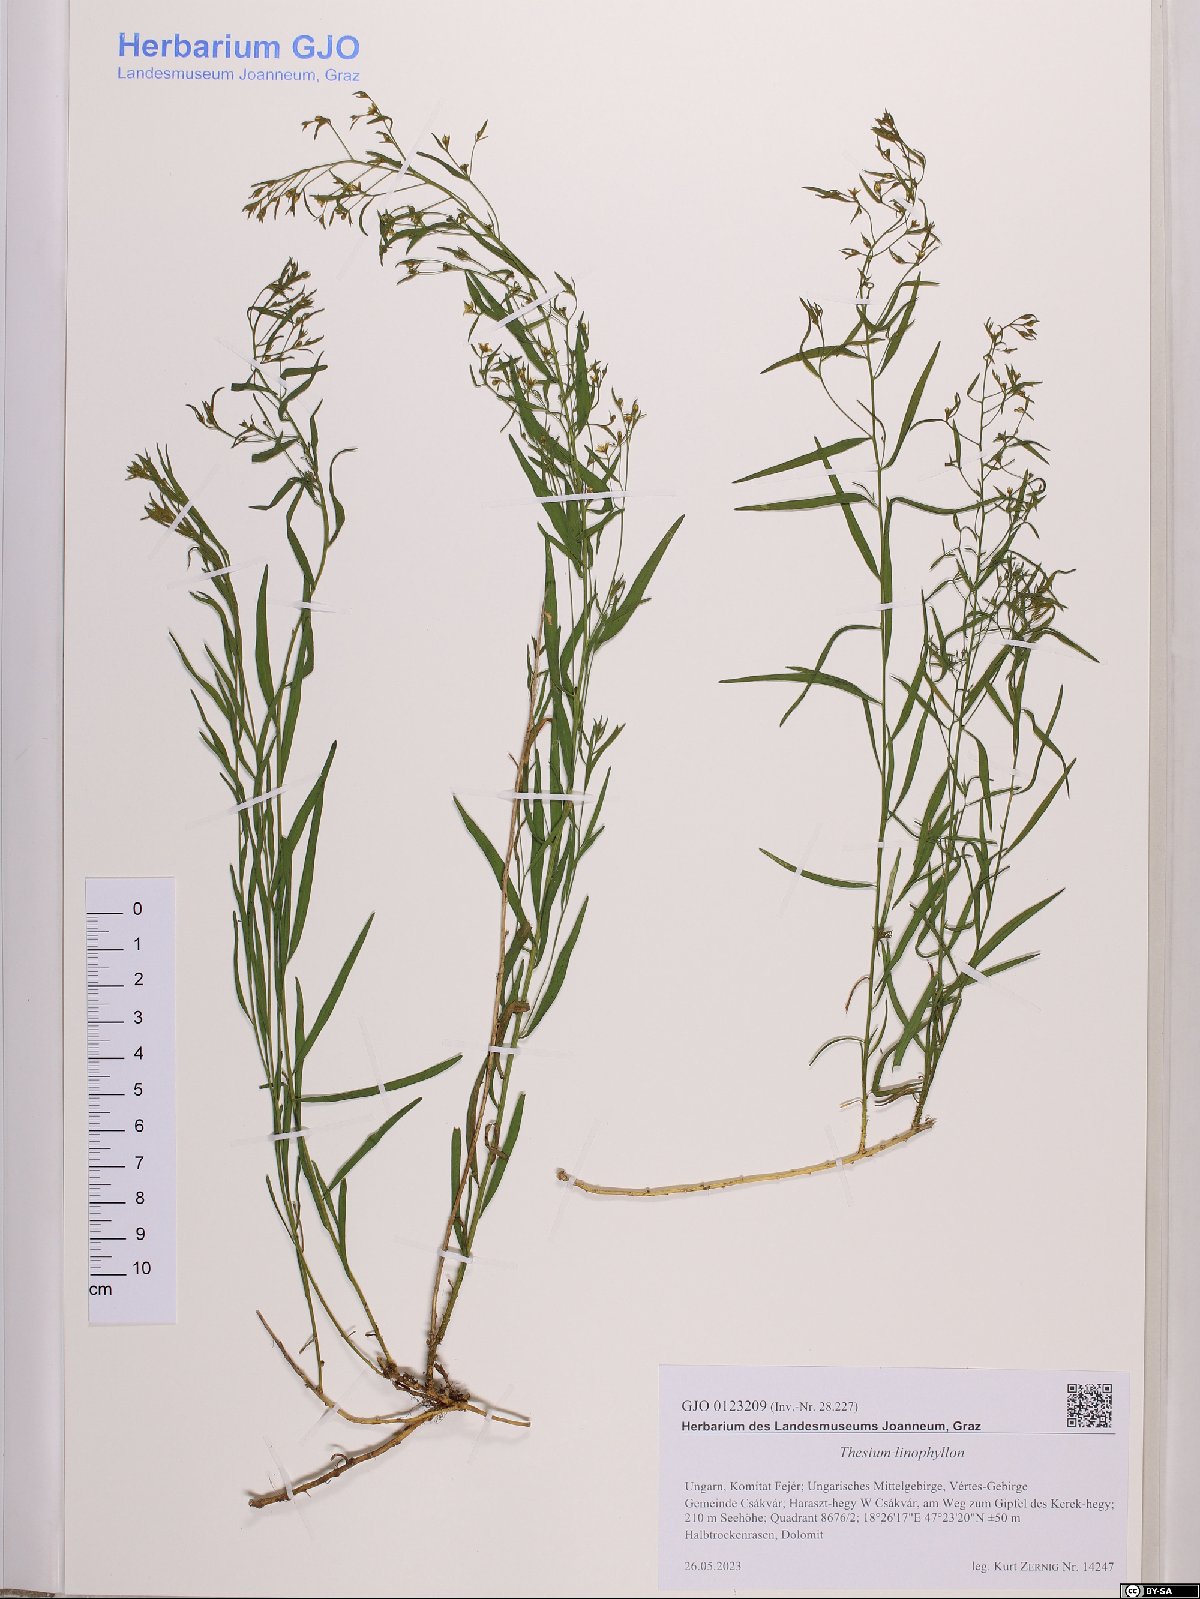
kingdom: Plantae
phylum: Tracheophyta
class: Magnoliopsida
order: Santalales
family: Thesiaceae
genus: Thesium
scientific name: Thesium linophyllon
